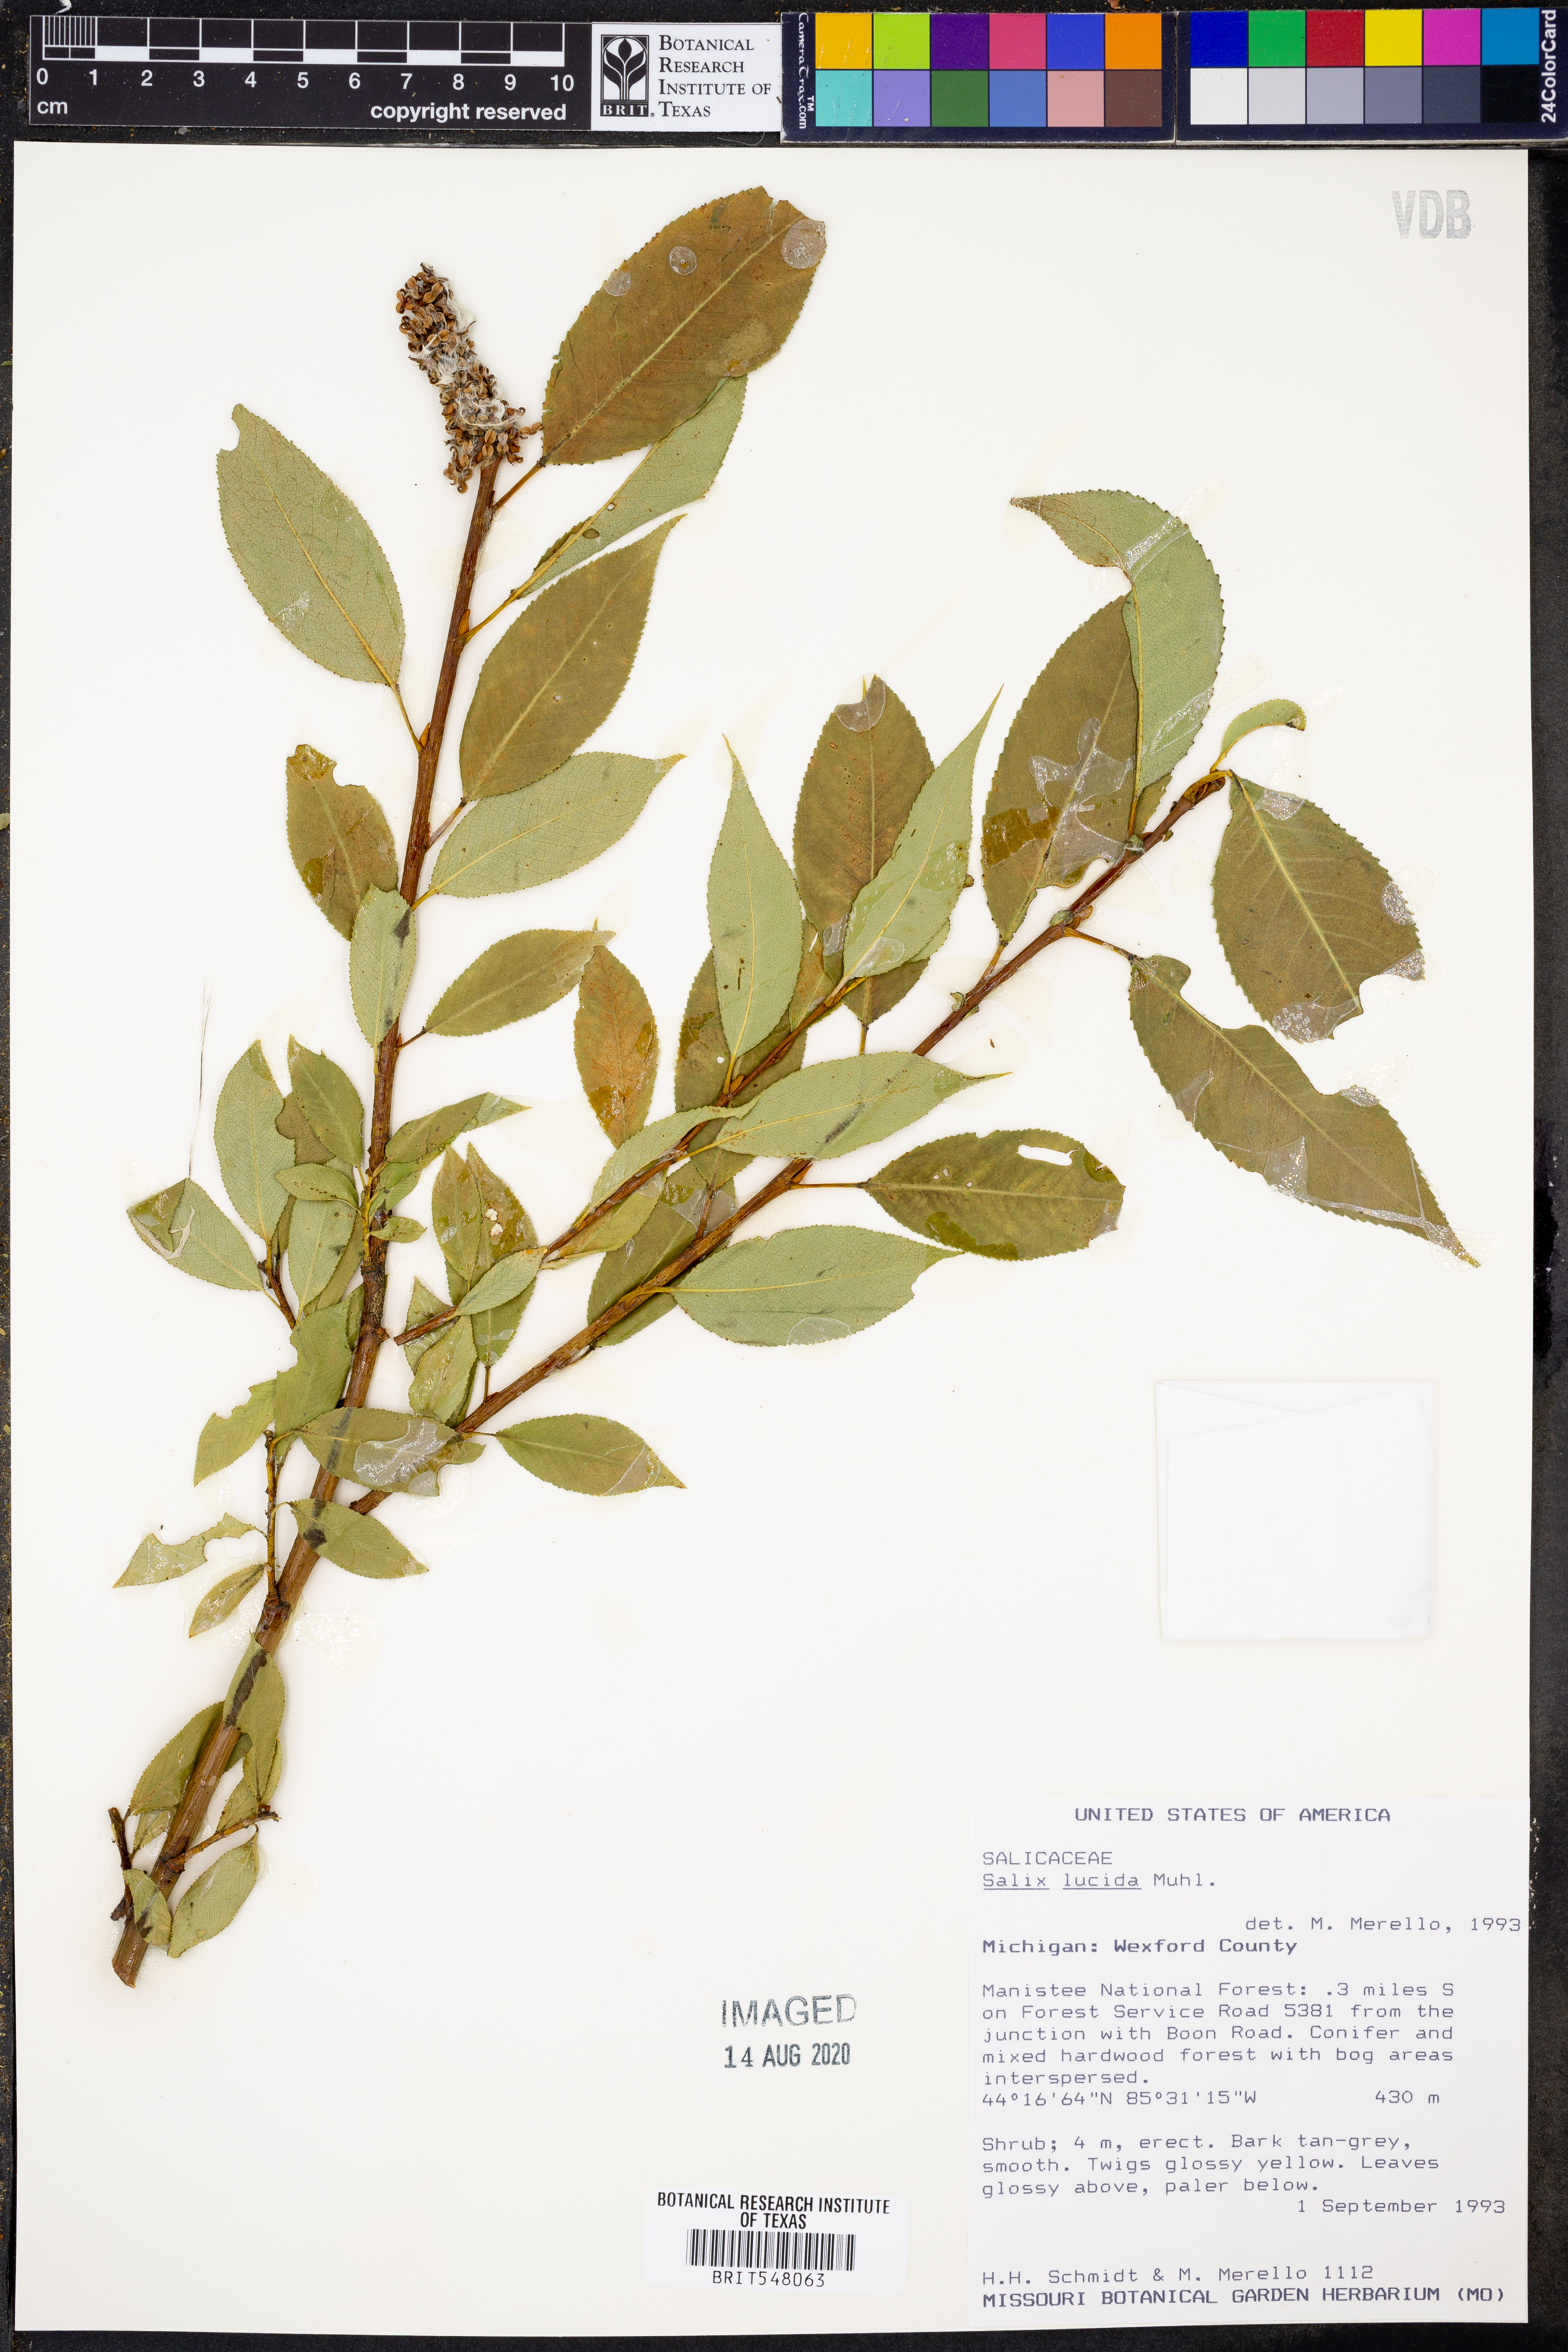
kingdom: Plantae
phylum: Tracheophyta
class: Magnoliopsida
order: Malpighiales
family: Salicaceae
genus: Salix
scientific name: Salix lucida
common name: Shining willow
